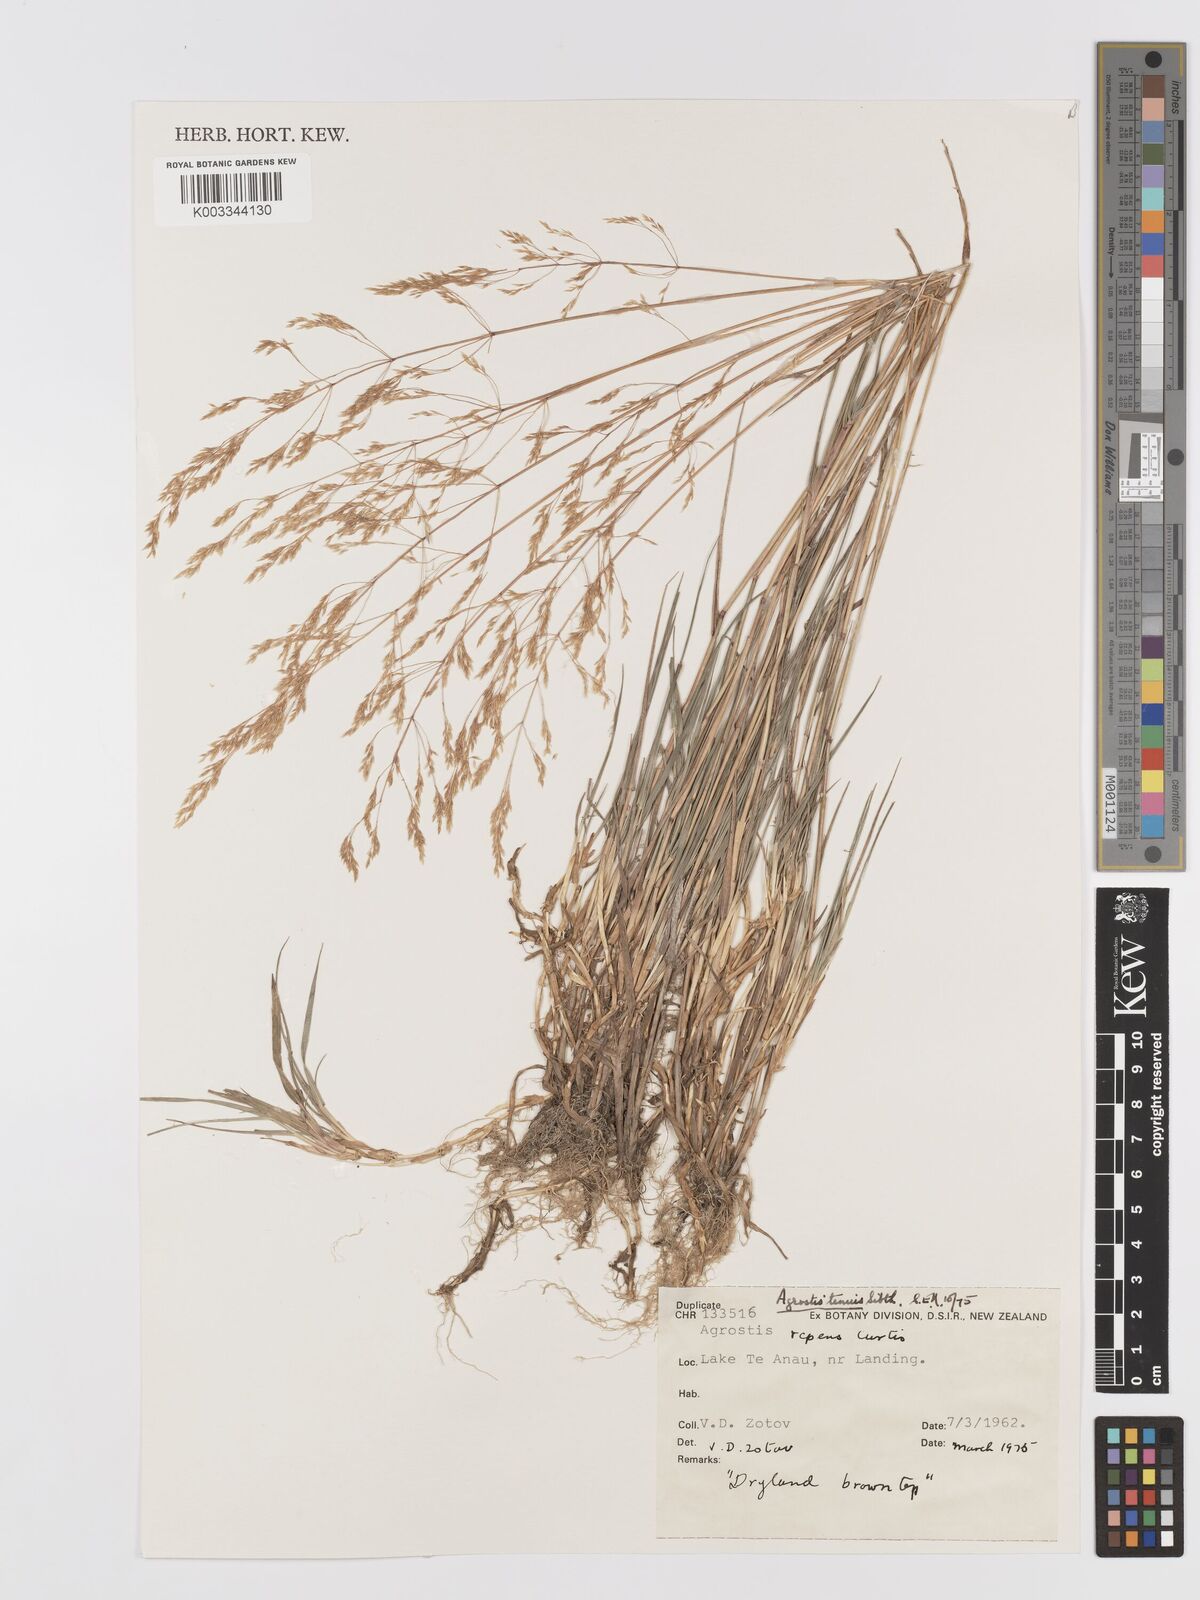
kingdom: Plantae
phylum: Tracheophyta
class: Liliopsida
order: Poales
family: Poaceae
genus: Agrostis
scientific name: Agrostis capillaris
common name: Colonial bentgrass
